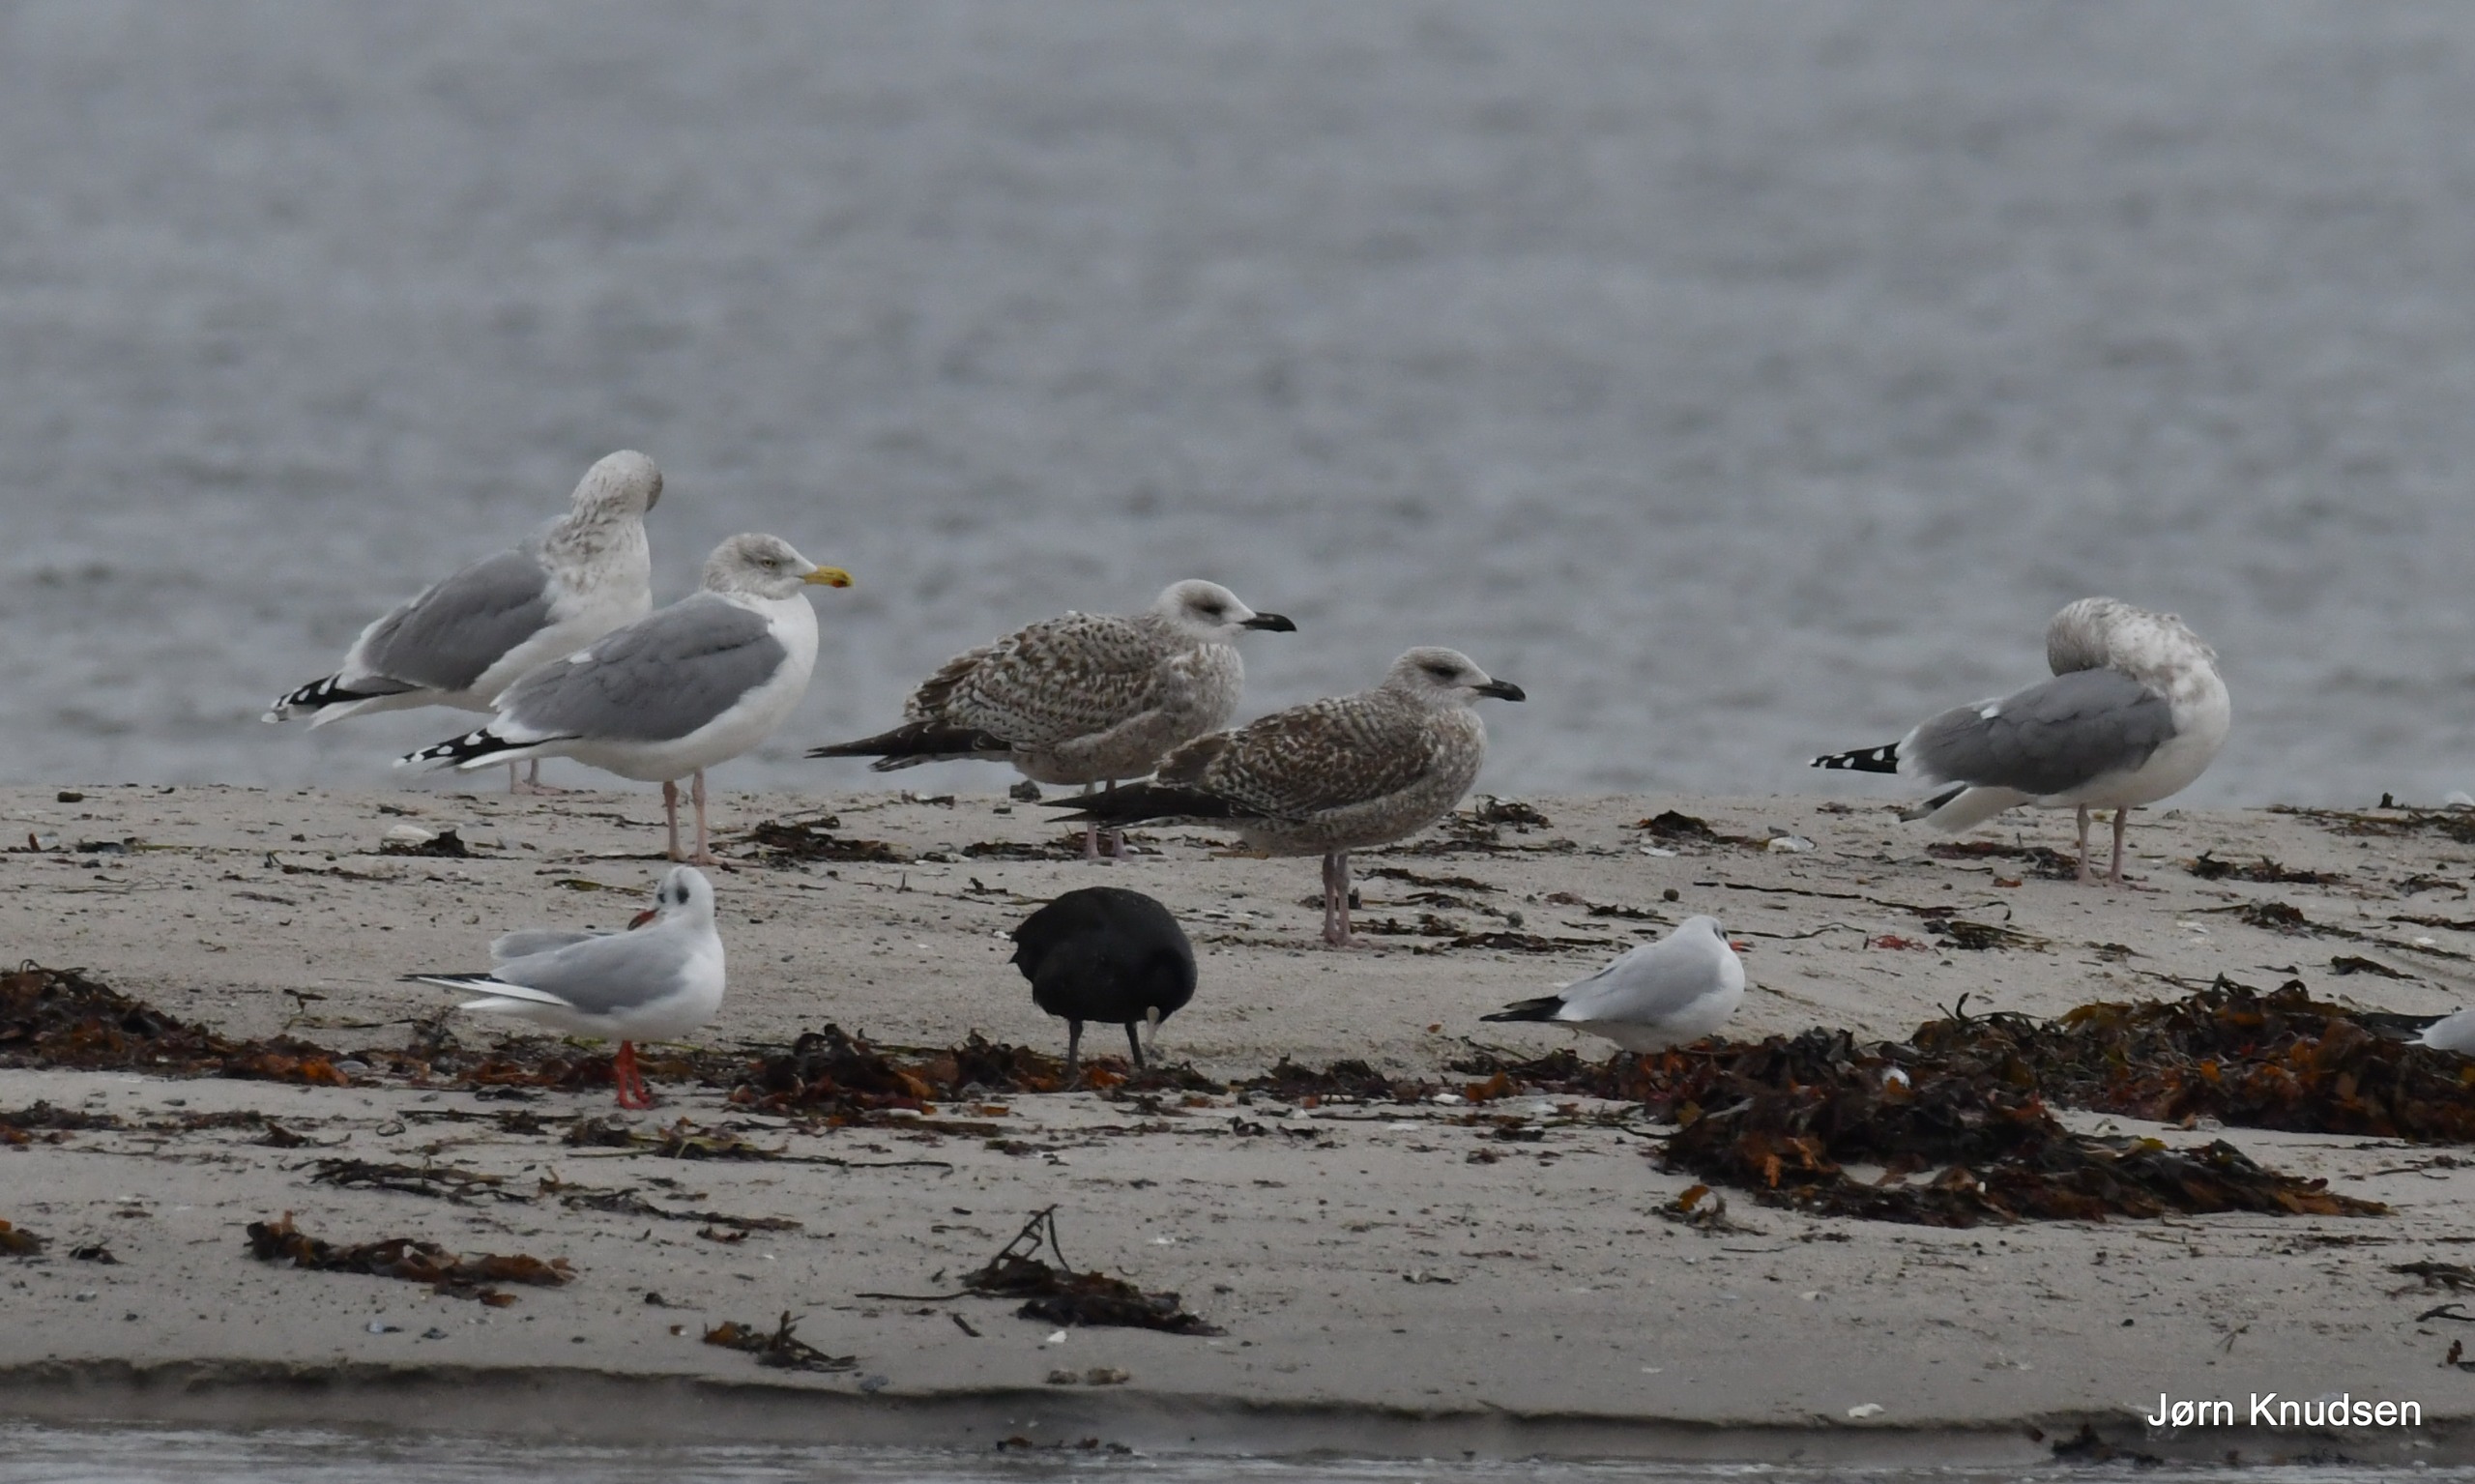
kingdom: Animalia
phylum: Chordata
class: Aves
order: Charadriiformes
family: Laridae
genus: Larus
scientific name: Larus argentatus
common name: Sølvmåge
